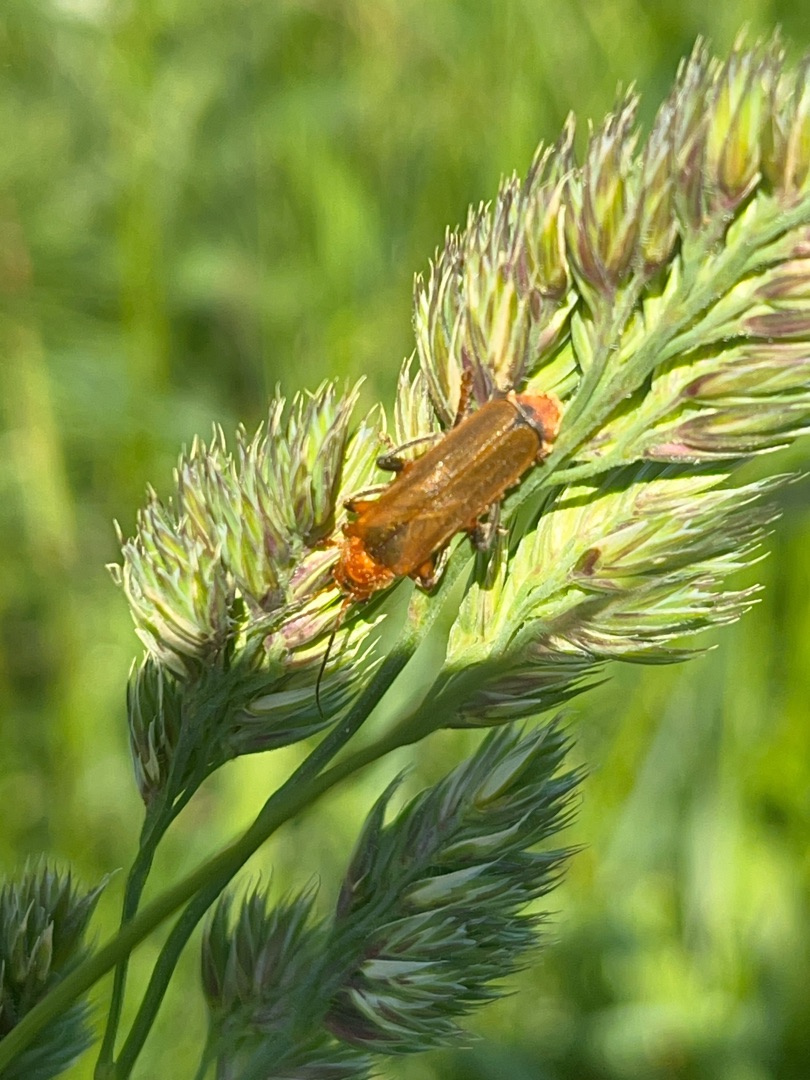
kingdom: Animalia
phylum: Arthropoda
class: Insecta
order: Coleoptera
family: Cantharidae
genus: Cantharis
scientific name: Cantharis livida
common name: Gul blødvinge
